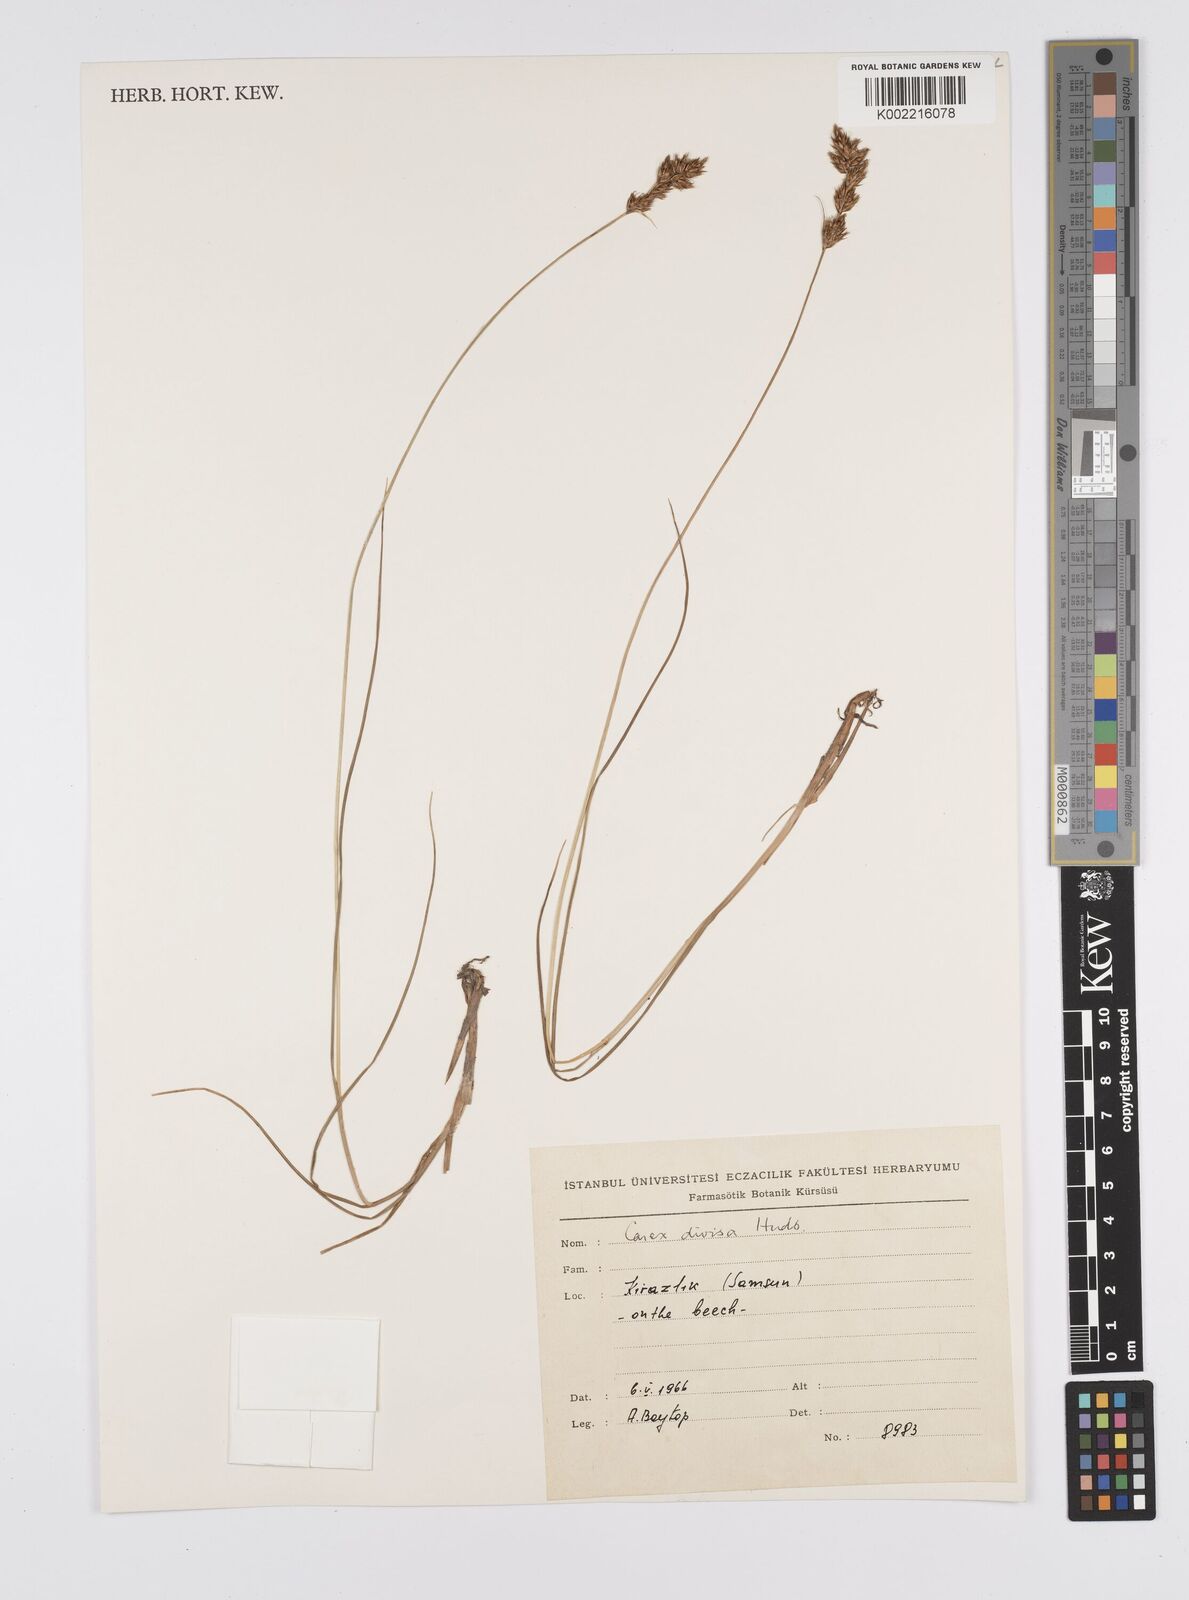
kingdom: Plantae
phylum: Tracheophyta
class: Liliopsida
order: Poales
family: Cyperaceae
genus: Carex
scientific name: Carex divisa
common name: Divided sedge
